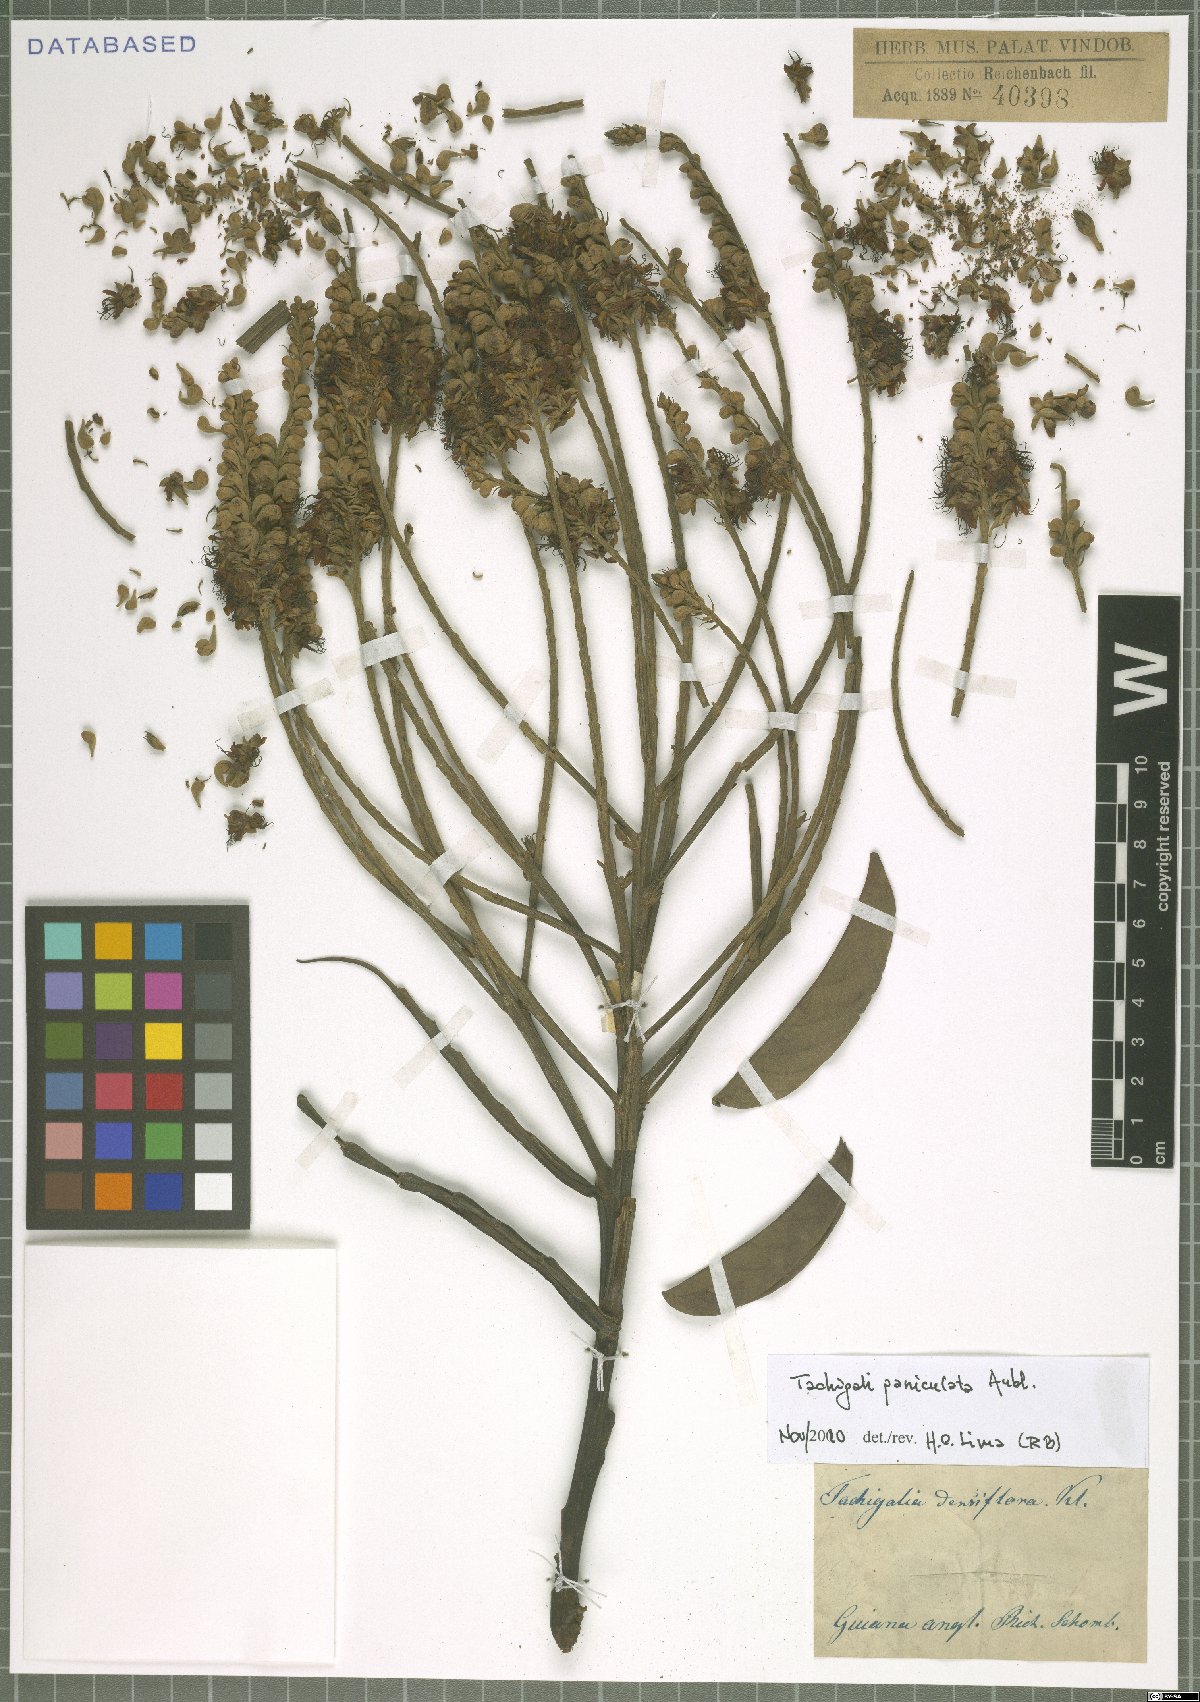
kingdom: Plantae
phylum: Tracheophyta
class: Magnoliopsida
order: Fabales
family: Fabaceae
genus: Tachigali
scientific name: Tachigali paniculata
